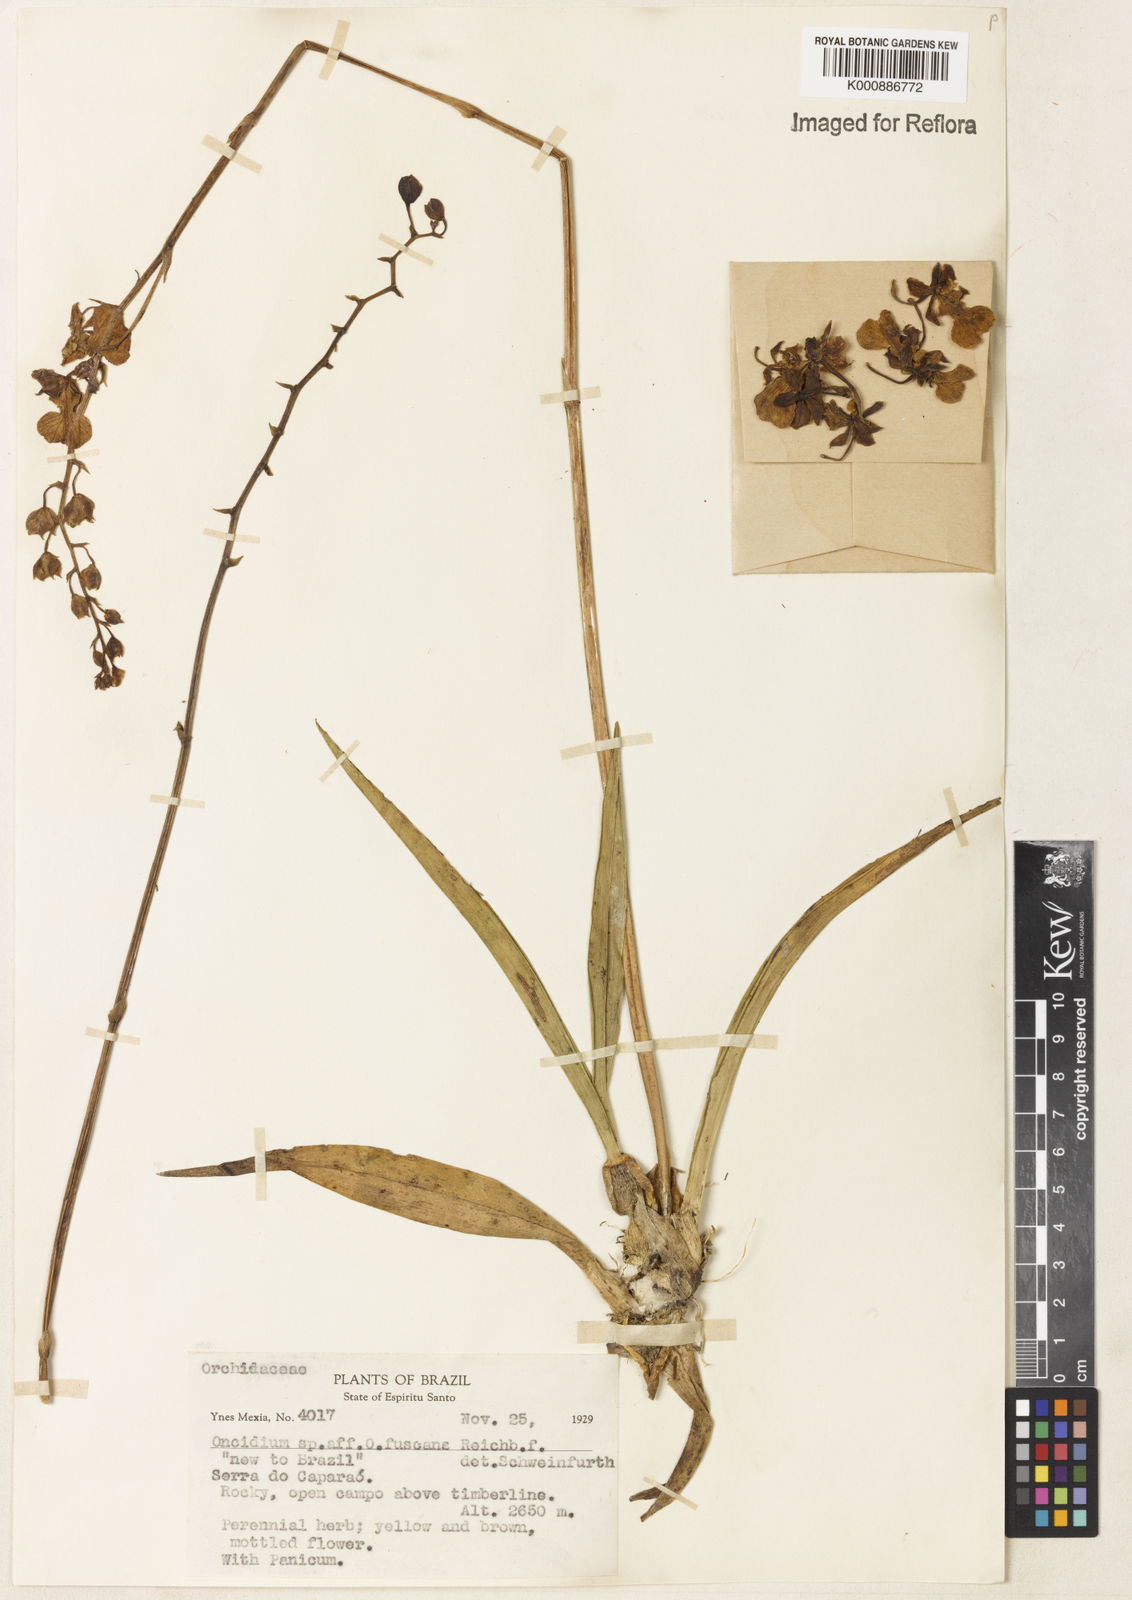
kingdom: Plantae
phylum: Tracheophyta
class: Liliopsida
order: Asparagales
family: Orchidaceae
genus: Gomesa
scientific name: Gomesa barbaceniae
